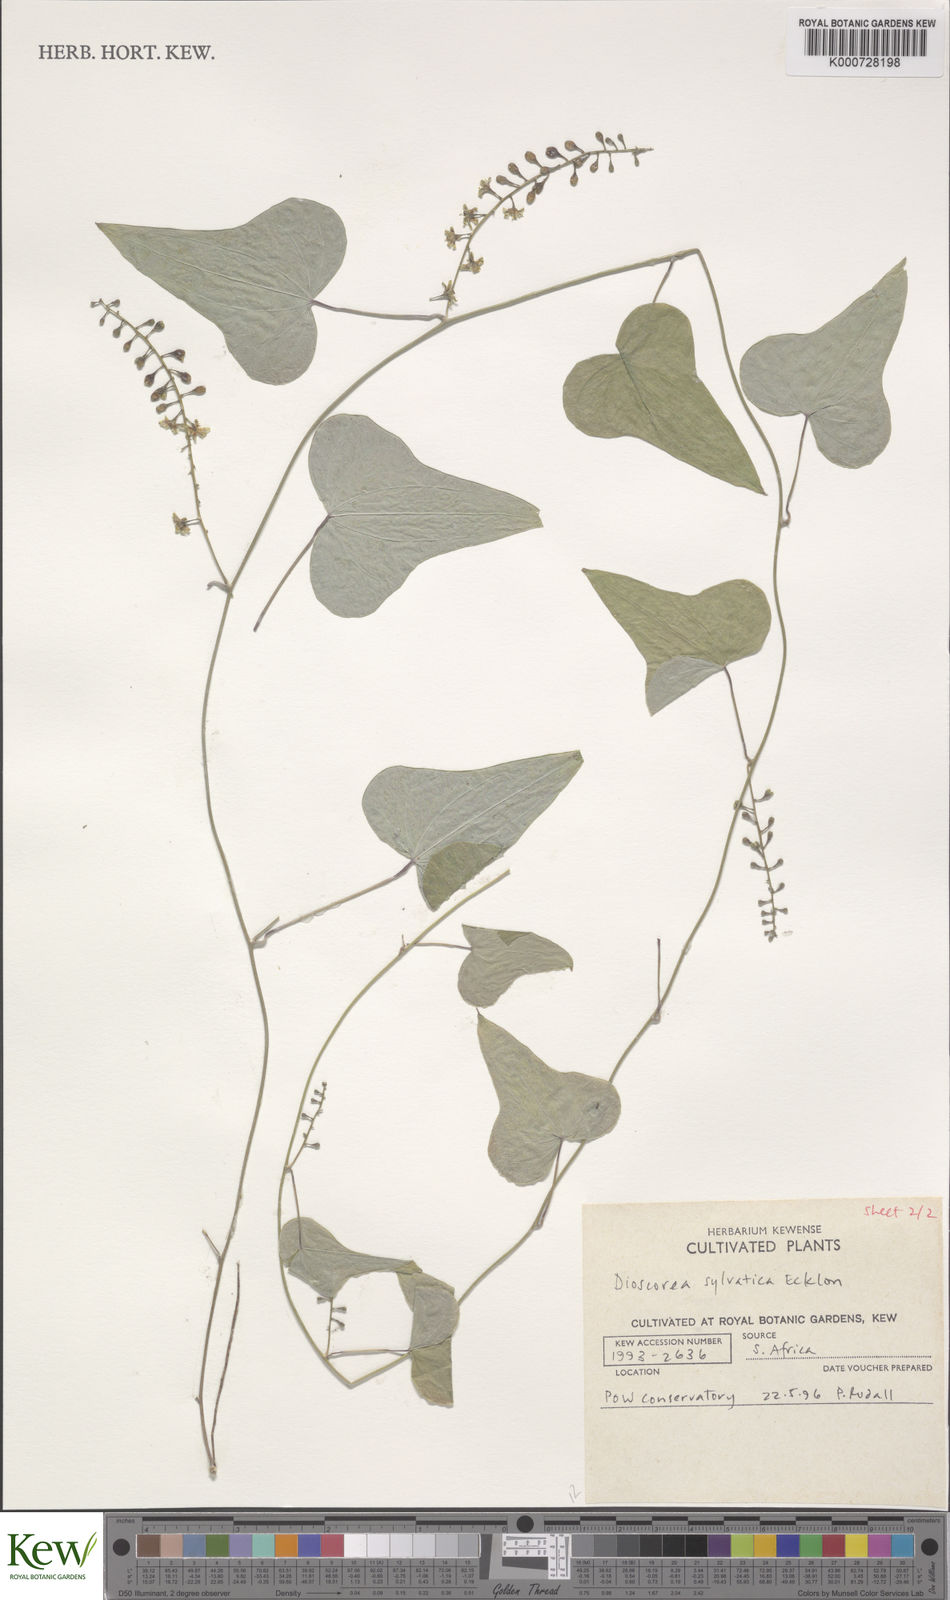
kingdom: Plantae
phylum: Tracheophyta
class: Liliopsida
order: Dioscoreales
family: Dioscoreaceae
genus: Dioscorea
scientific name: Dioscorea sylvatica
